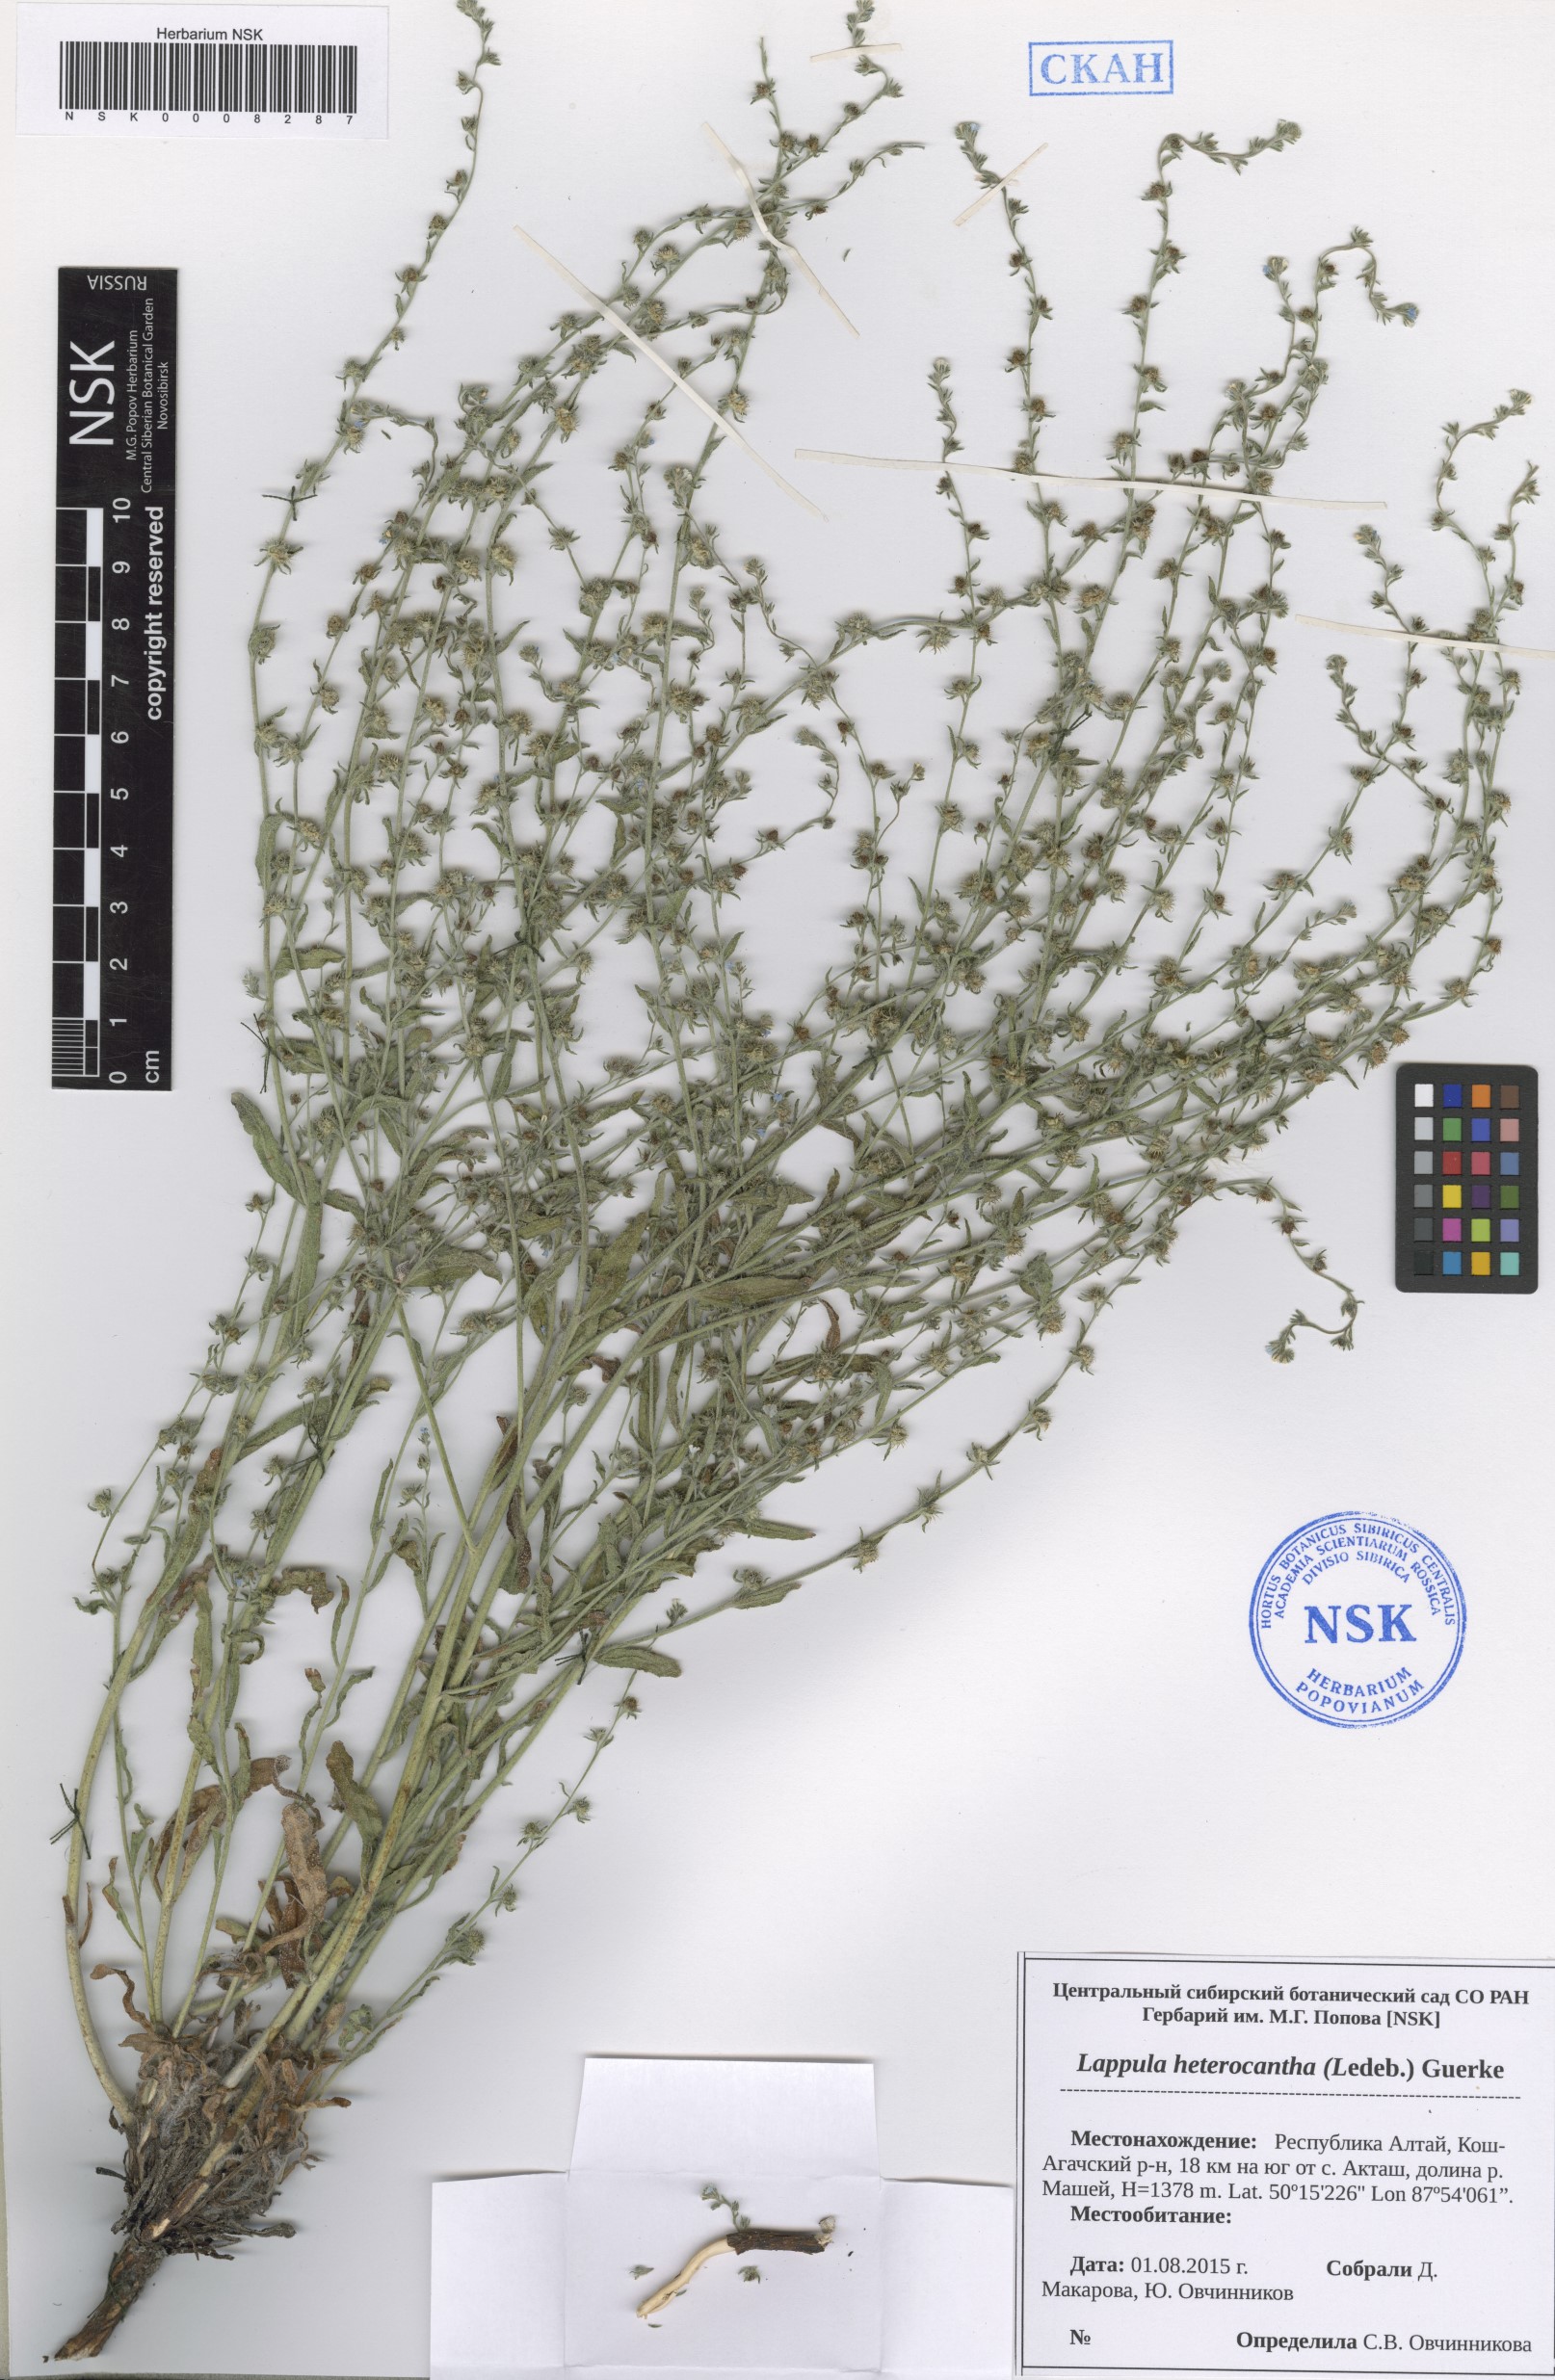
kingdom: Plantae
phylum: Tracheophyta
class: Magnoliopsida
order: Boraginales
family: Boraginaceae
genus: Lappula
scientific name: Lappula heteracantha
